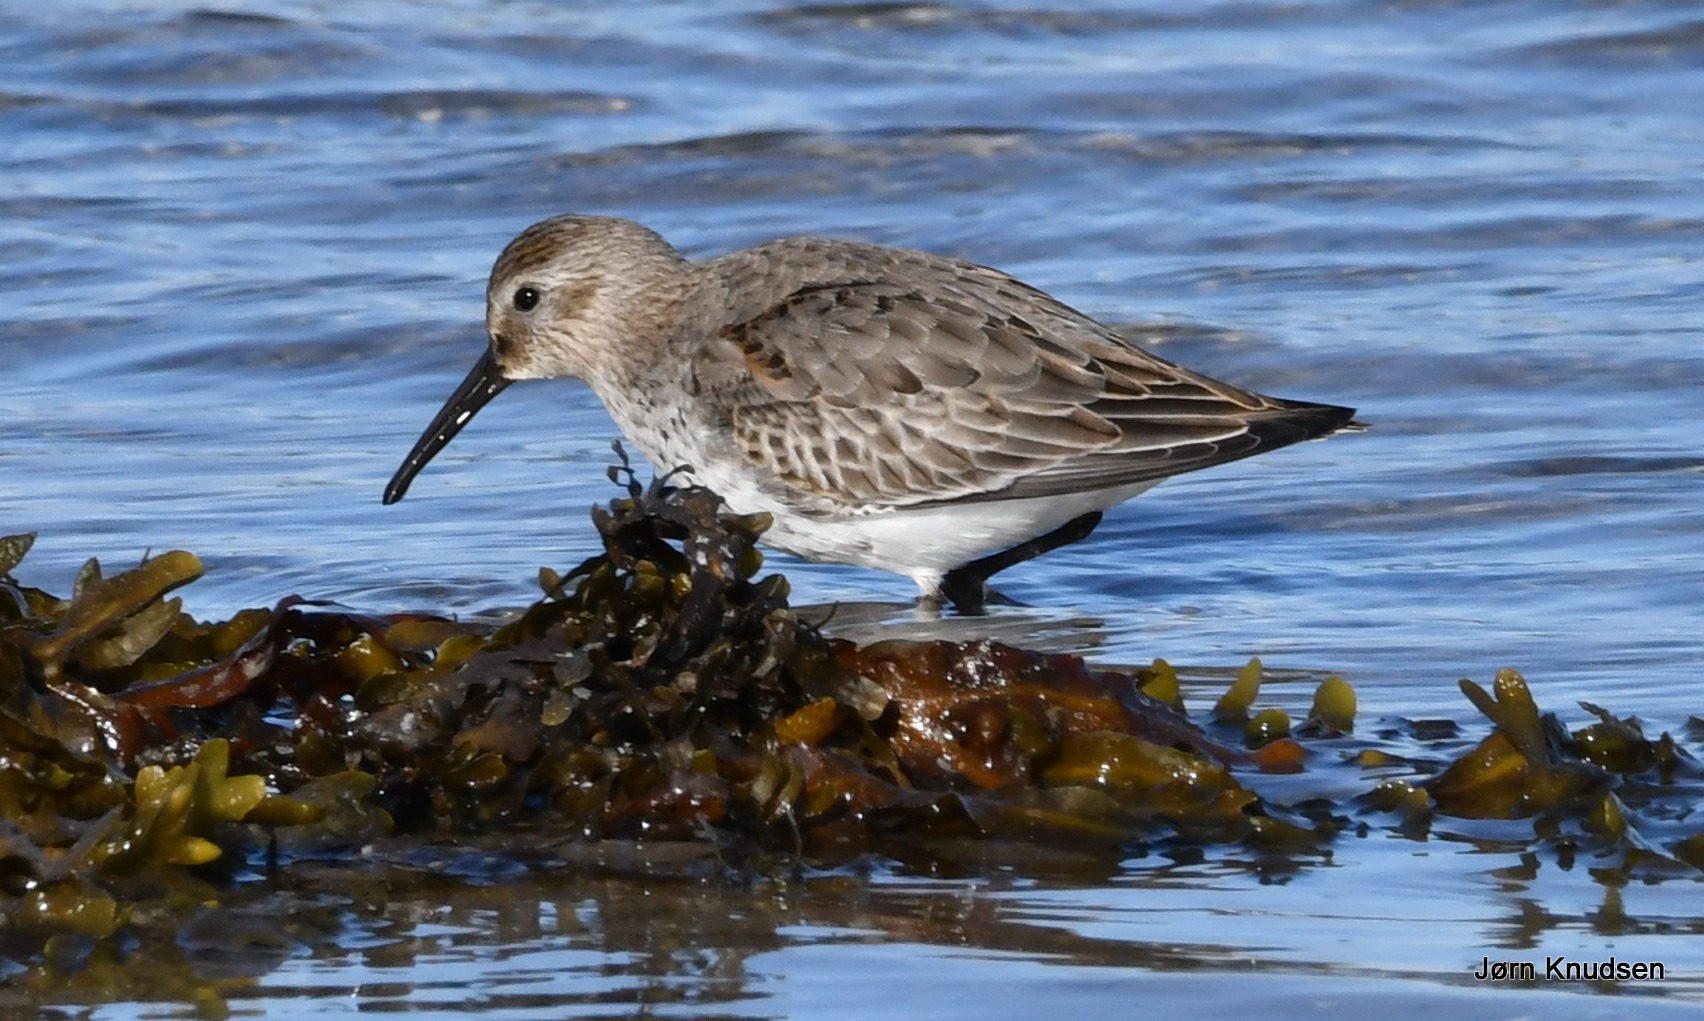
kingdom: Animalia
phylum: Chordata
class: Aves
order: Charadriiformes
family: Scolopacidae
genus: Calidris
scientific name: Calidris alpina
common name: Almindelig ryle
